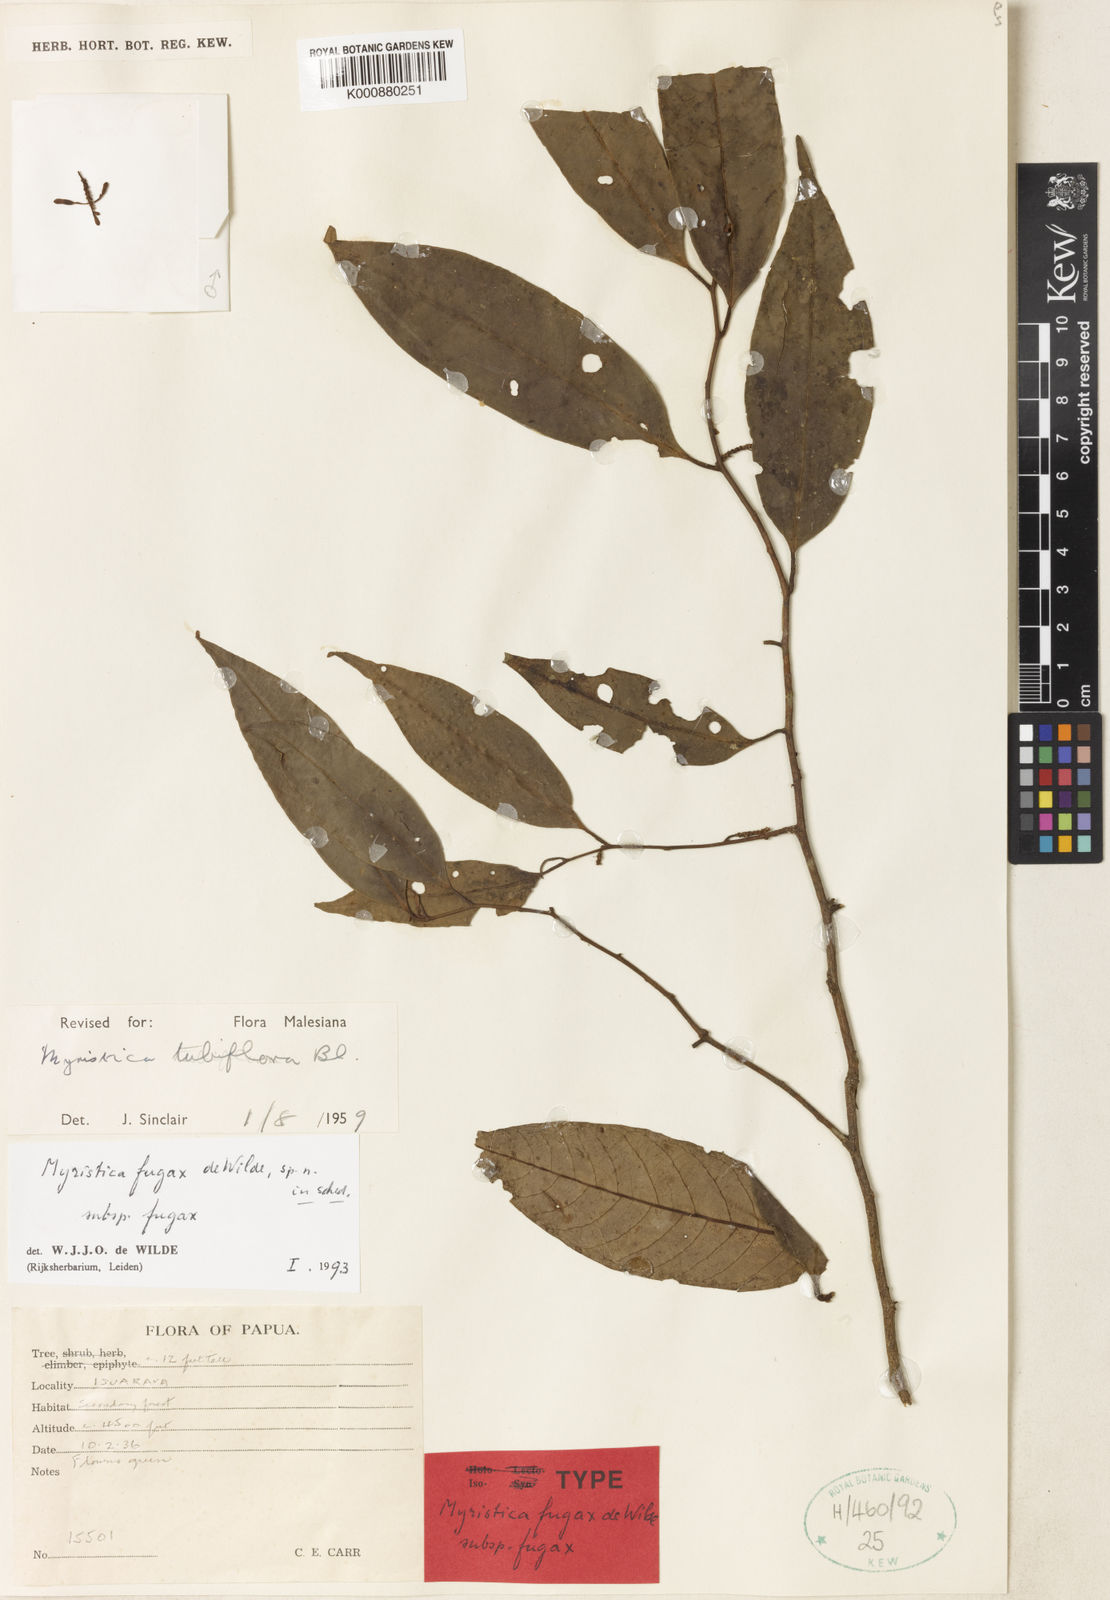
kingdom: Plantae
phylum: Tracheophyta
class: Magnoliopsida
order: Magnoliales
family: Myristicaceae
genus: Myristica
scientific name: Myristica fugax
